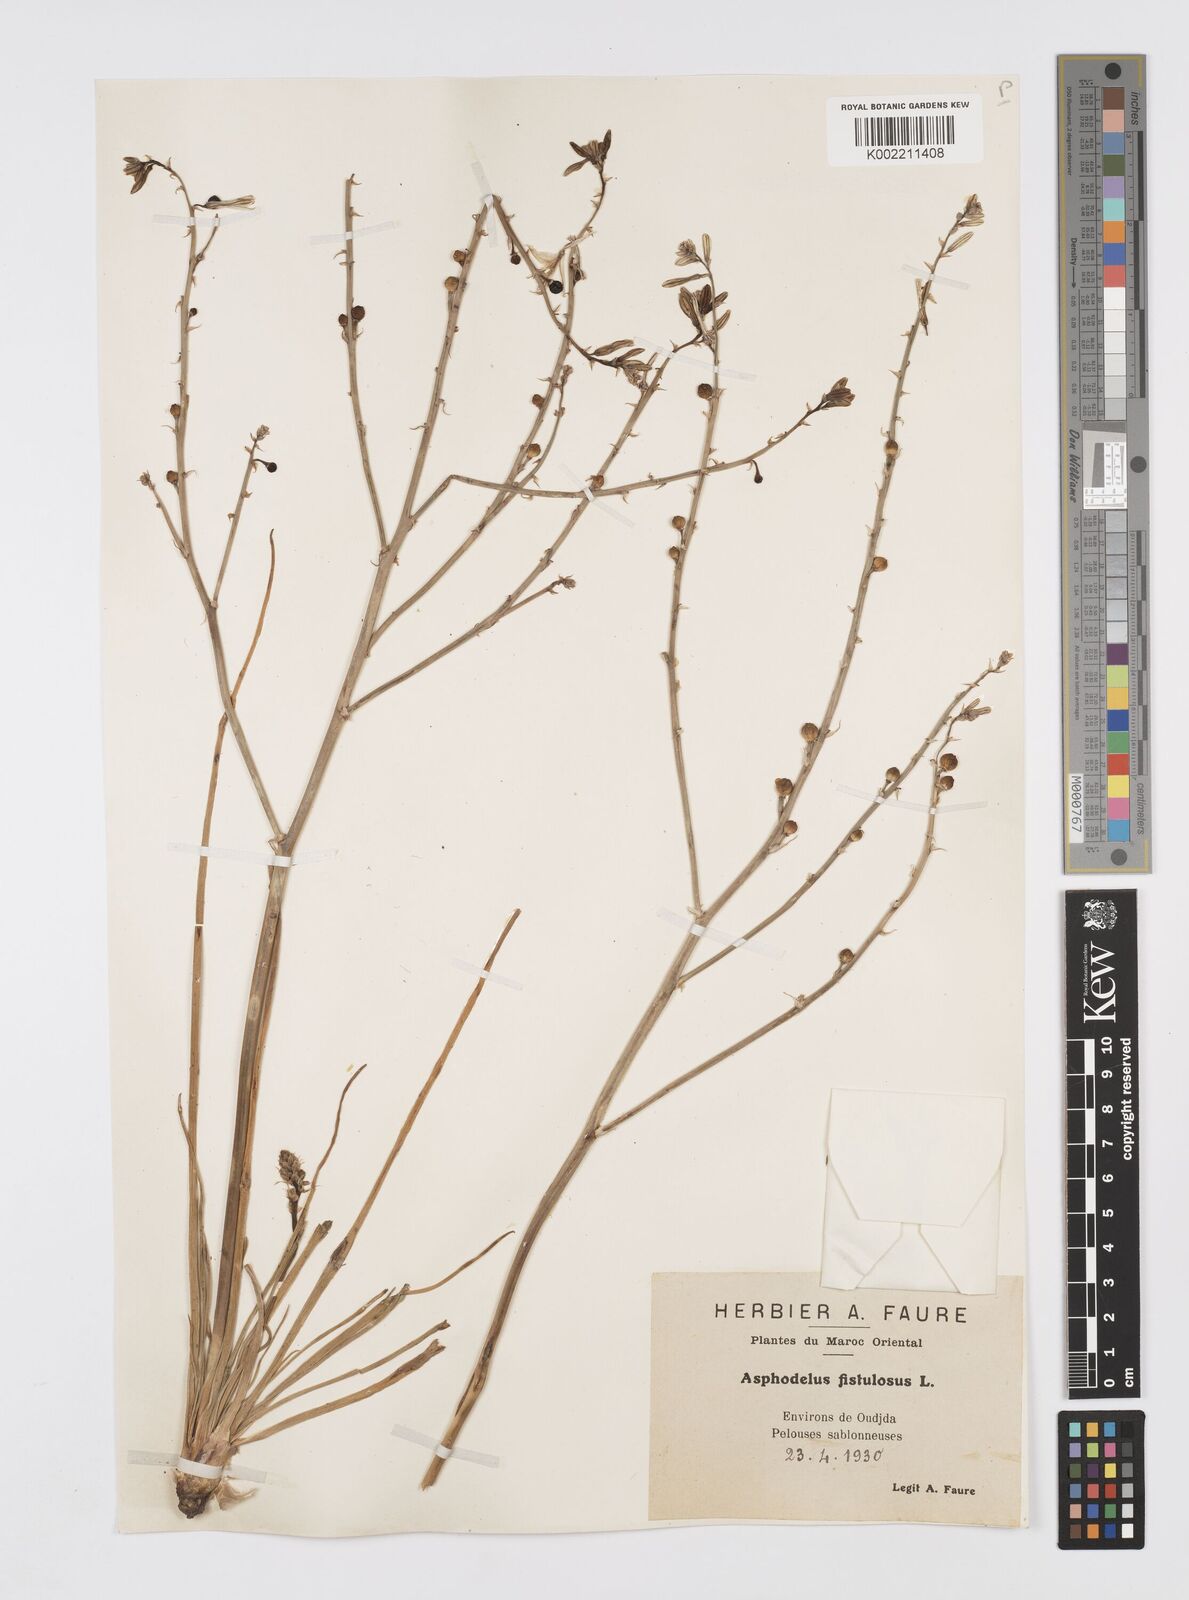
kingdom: Plantae
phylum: Tracheophyta
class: Liliopsida
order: Asparagales
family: Asphodelaceae
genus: Asphodelus
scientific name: Asphodelus fistulosus
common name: Onionweed
